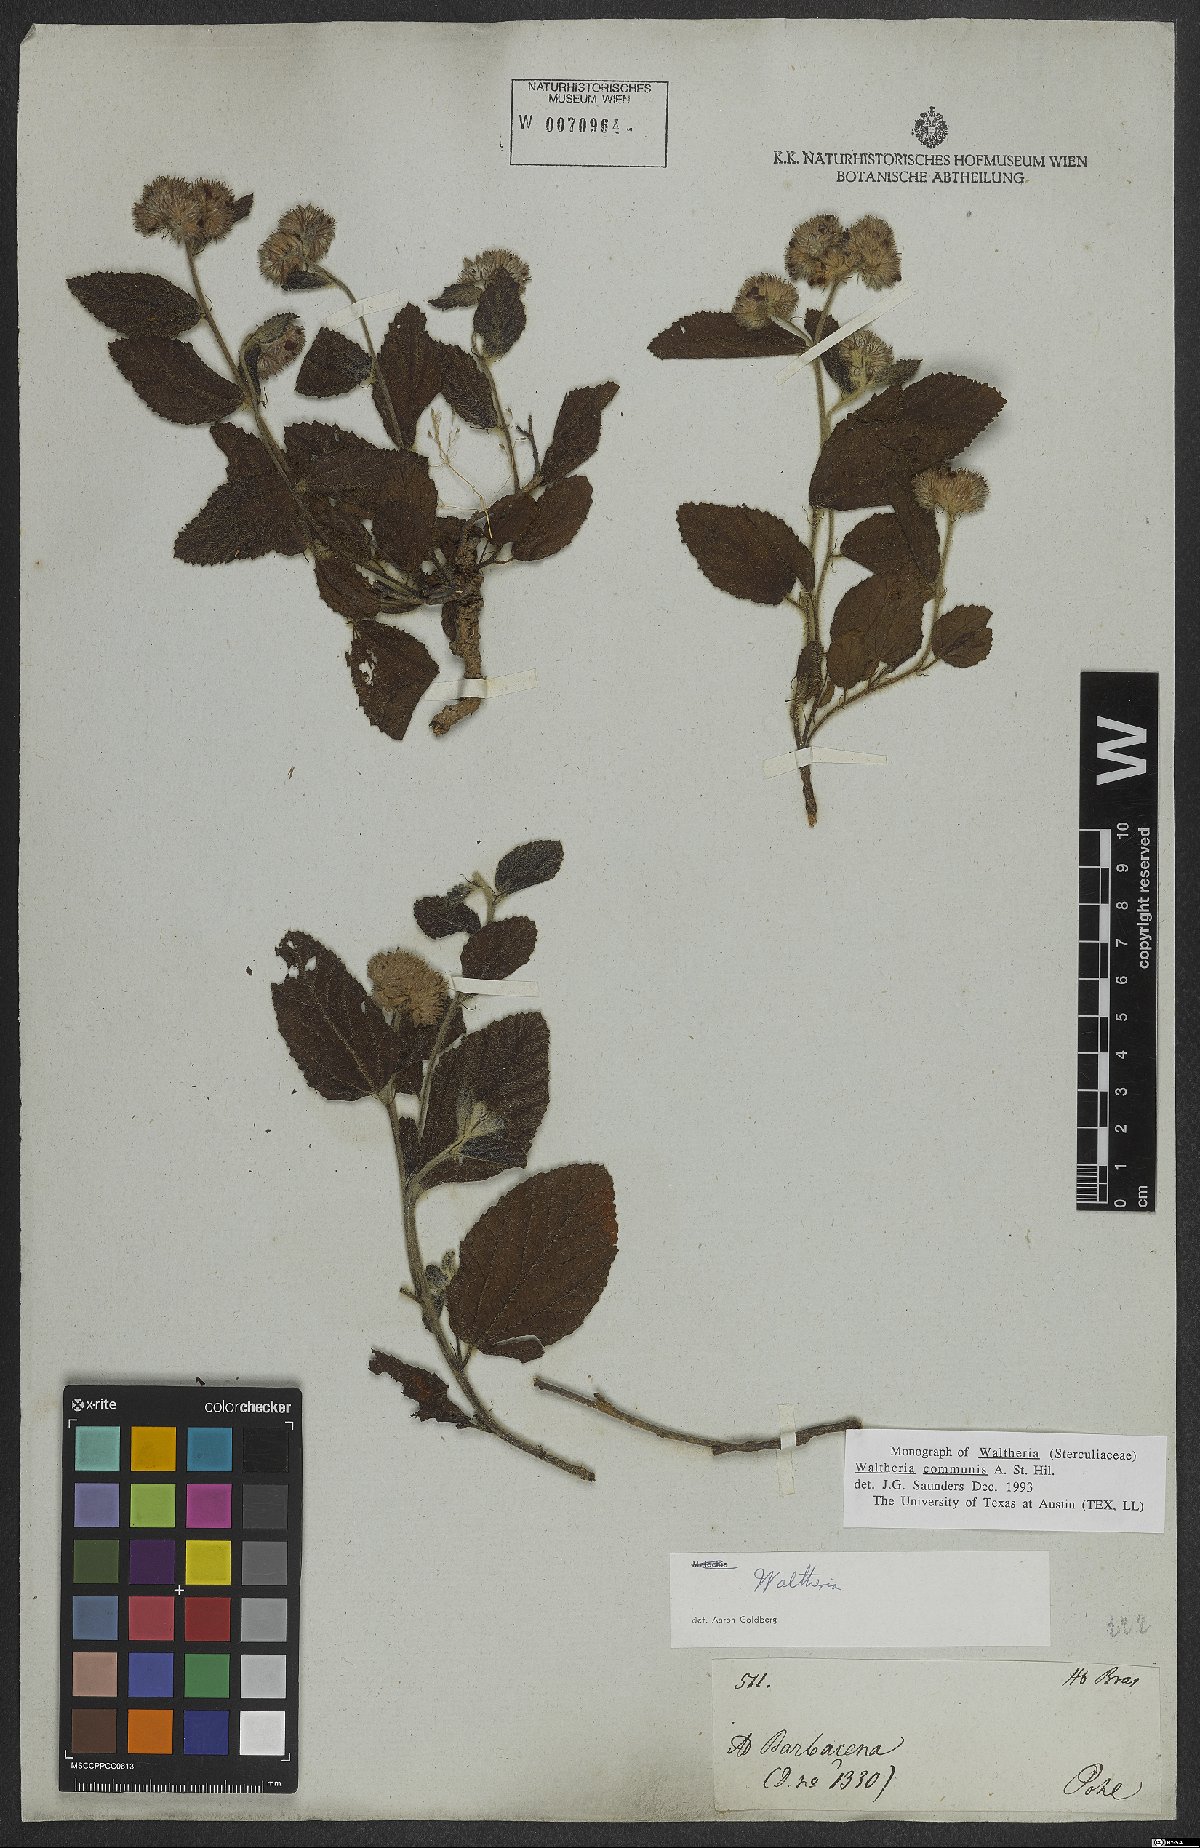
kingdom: Plantae
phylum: Tracheophyta
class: Magnoliopsida
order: Malvales
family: Malvaceae
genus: Waltheria
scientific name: Waltheria communis
